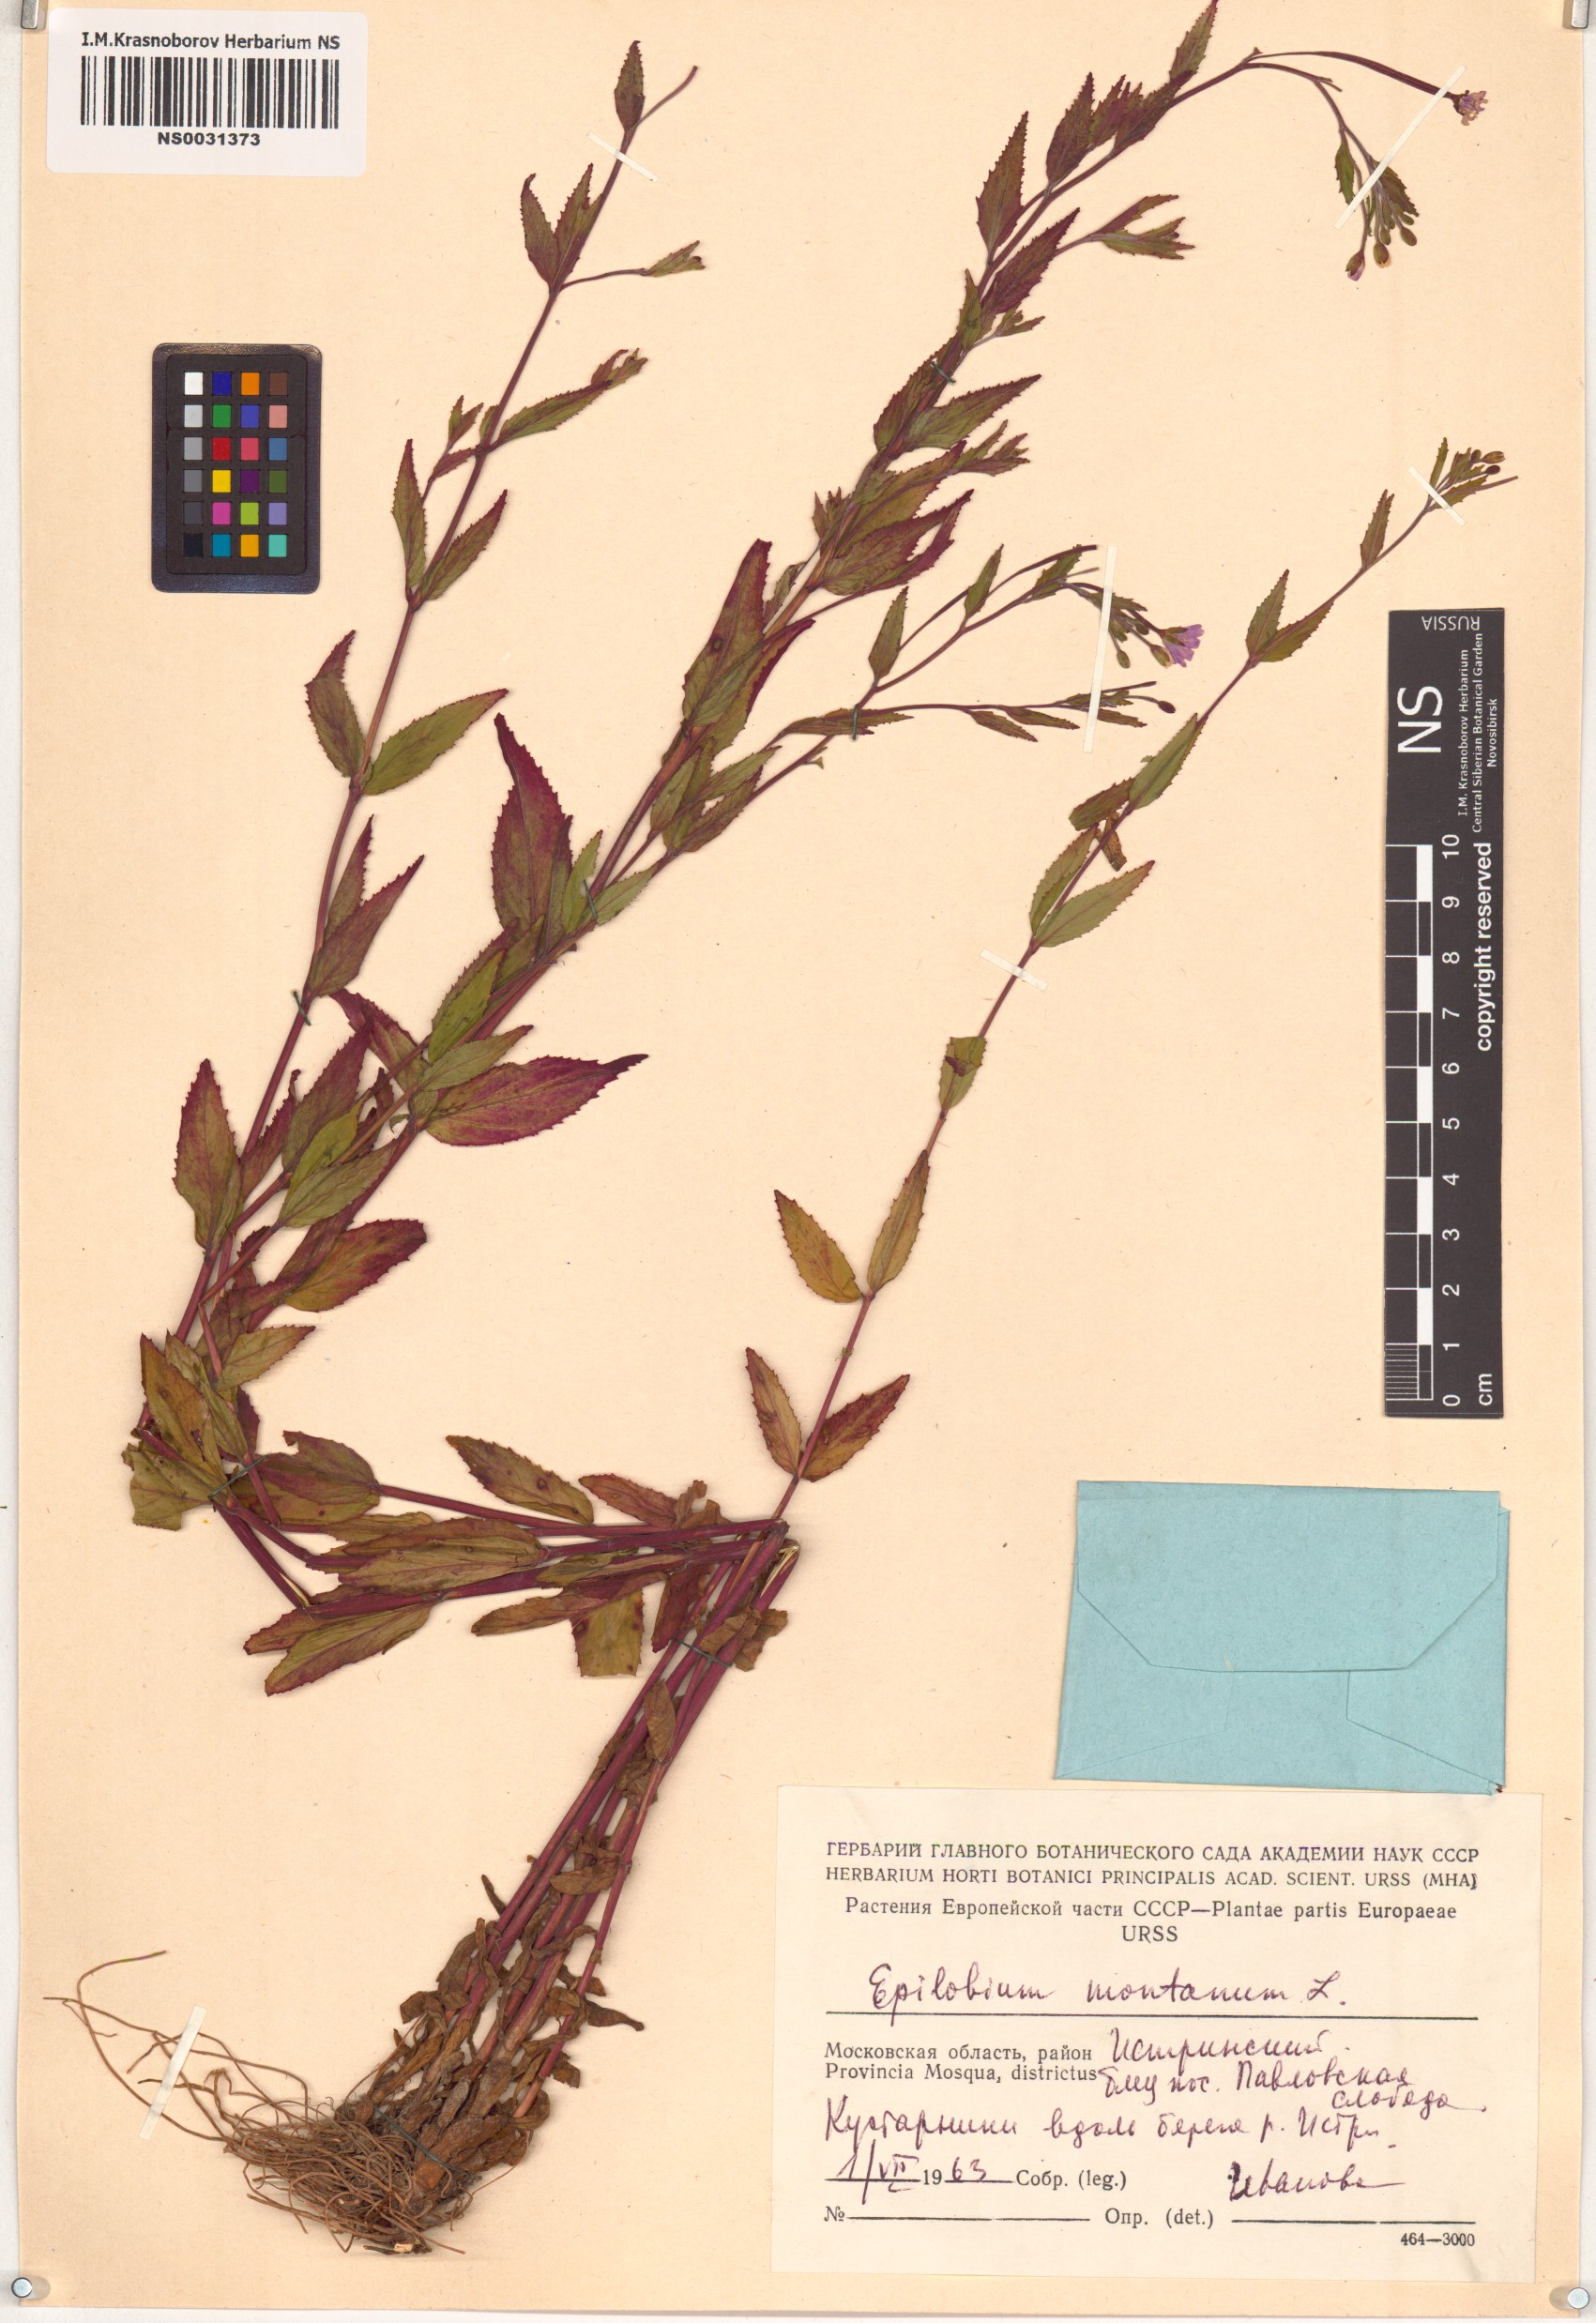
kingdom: Plantae
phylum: Tracheophyta
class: Magnoliopsida
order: Myrtales
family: Onagraceae
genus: Epilobium
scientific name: Epilobium montanum
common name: Broad-leaved willowherb
